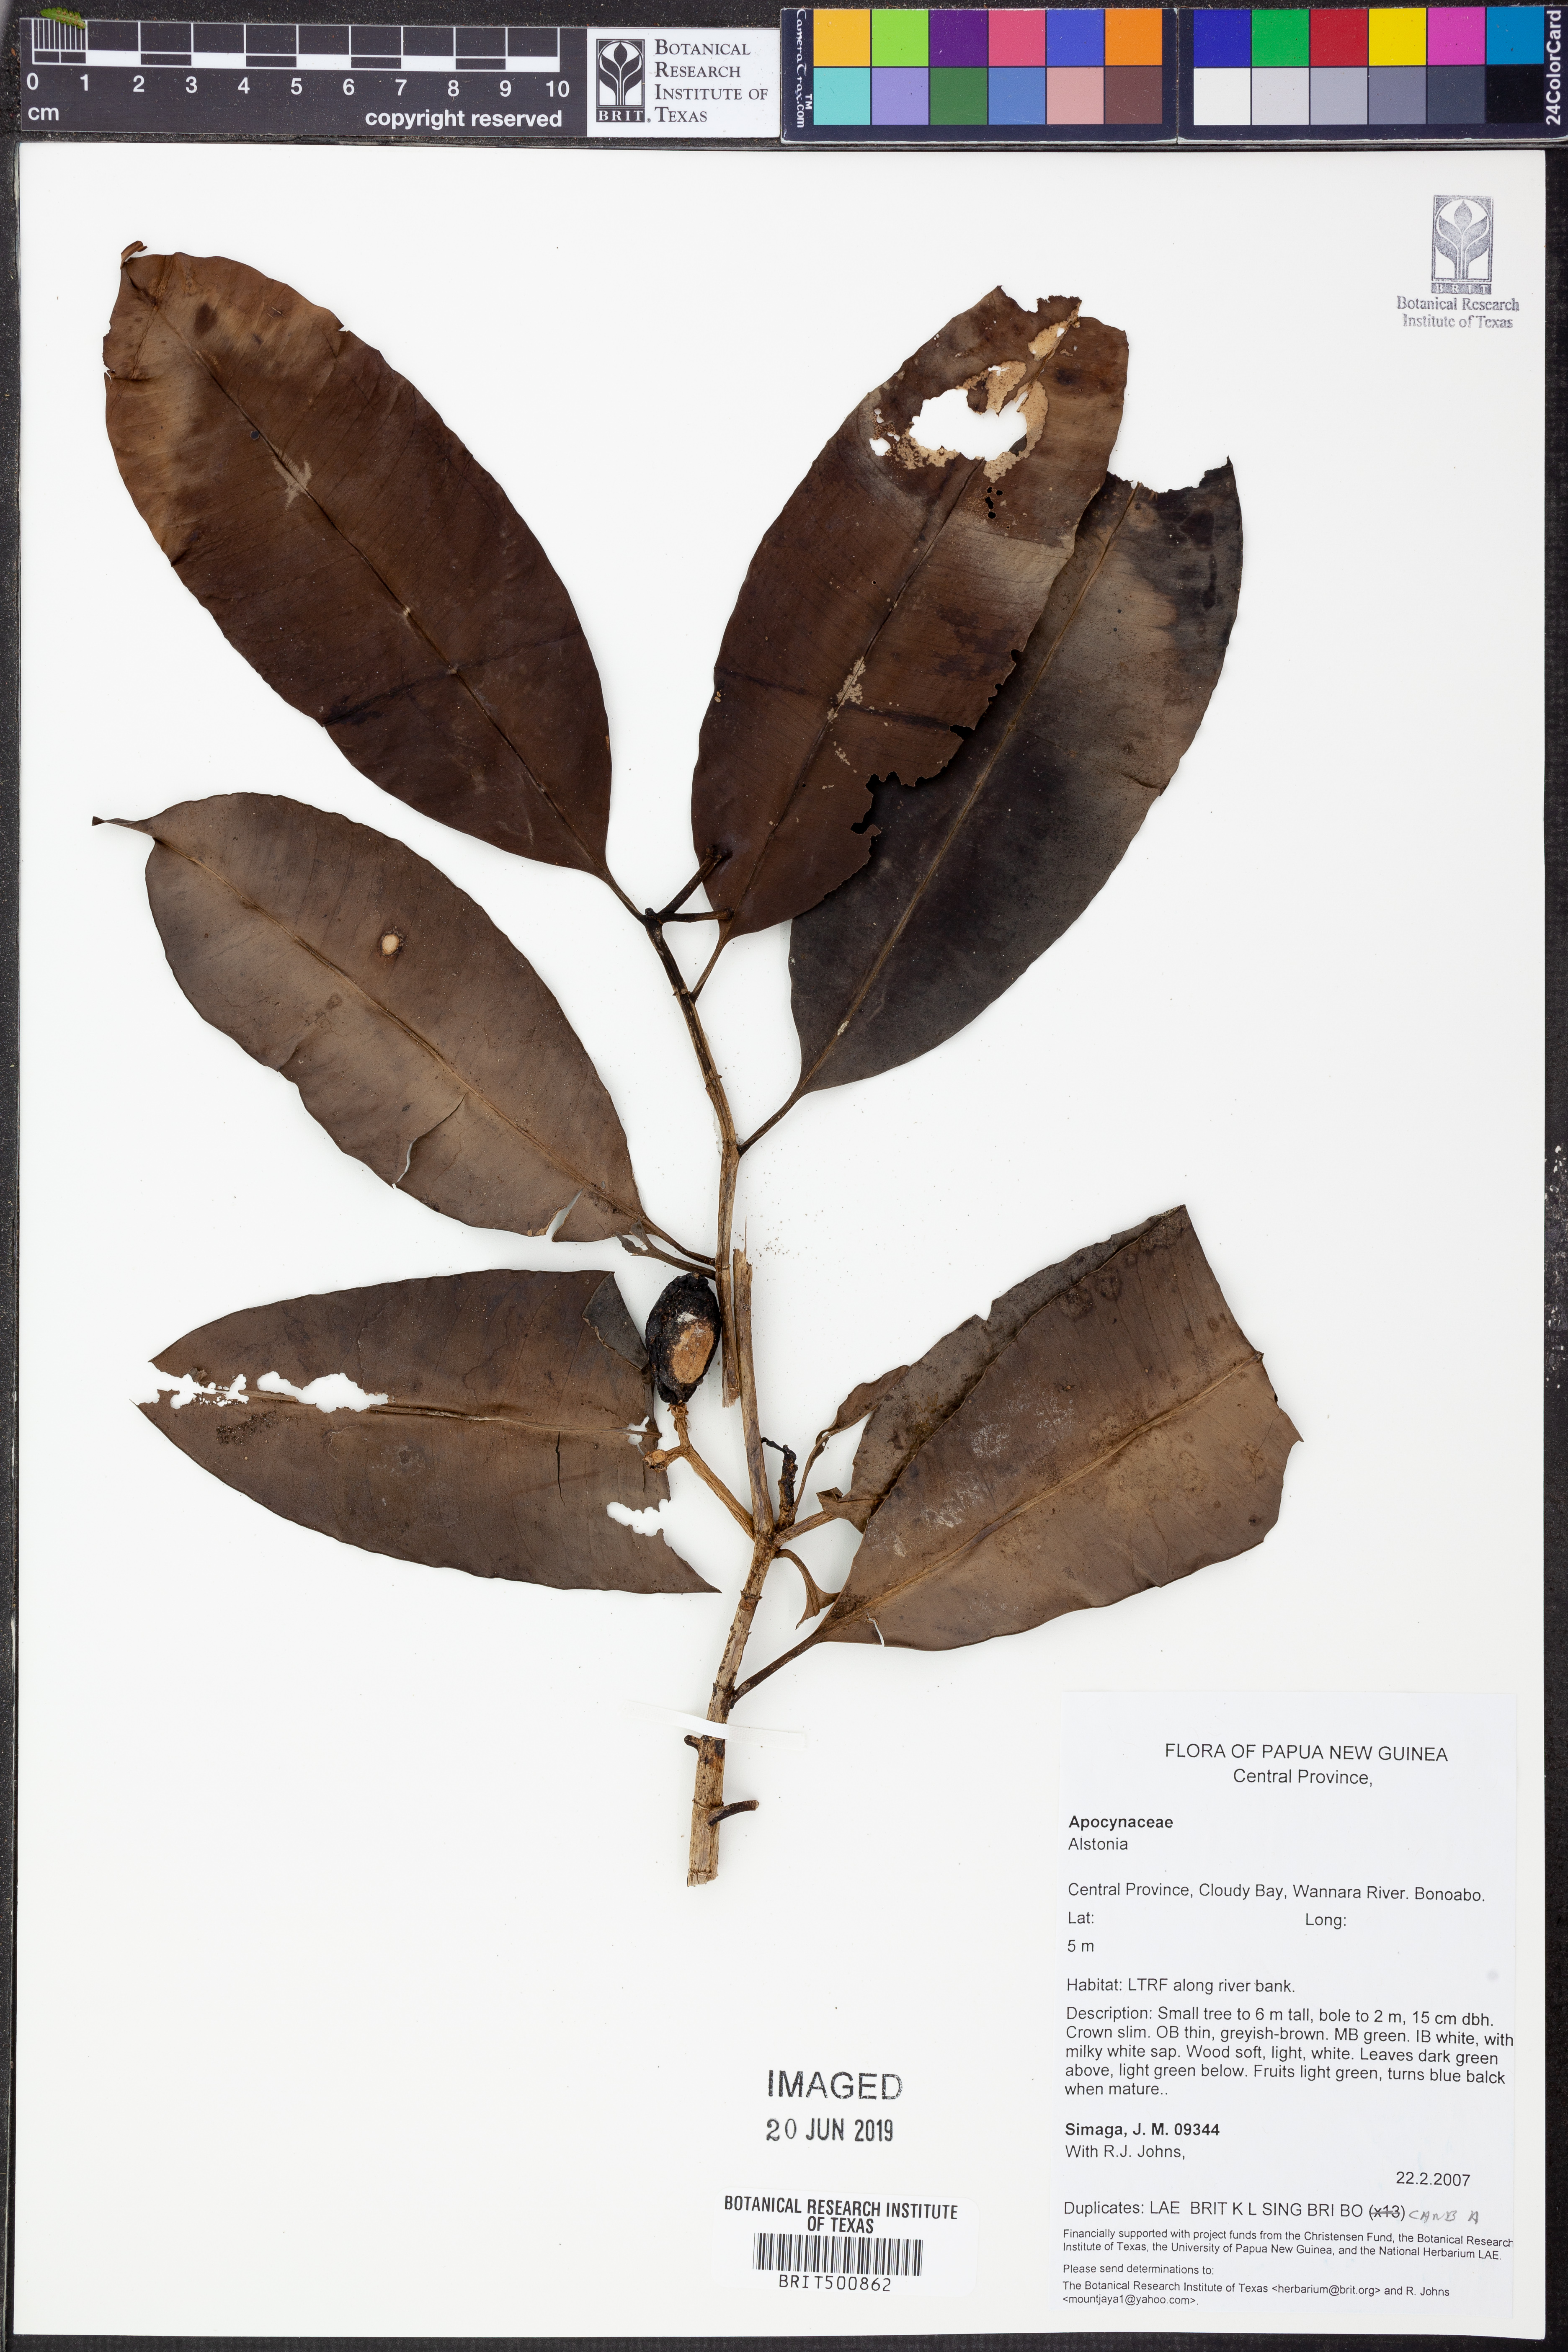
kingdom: Plantae
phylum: Tracheophyta
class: Magnoliopsida
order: Gentianales
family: Apocynaceae
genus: Alstonia
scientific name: Alstonia
